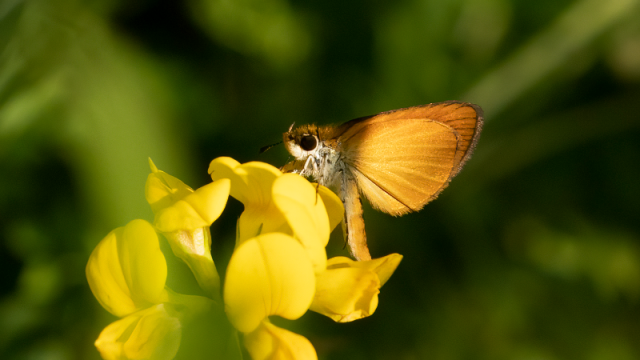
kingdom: Animalia
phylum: Arthropoda
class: Insecta
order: Lepidoptera
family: Hesperiidae
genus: Ancyloxypha
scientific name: Ancyloxypha numitor
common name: Least Skipper
